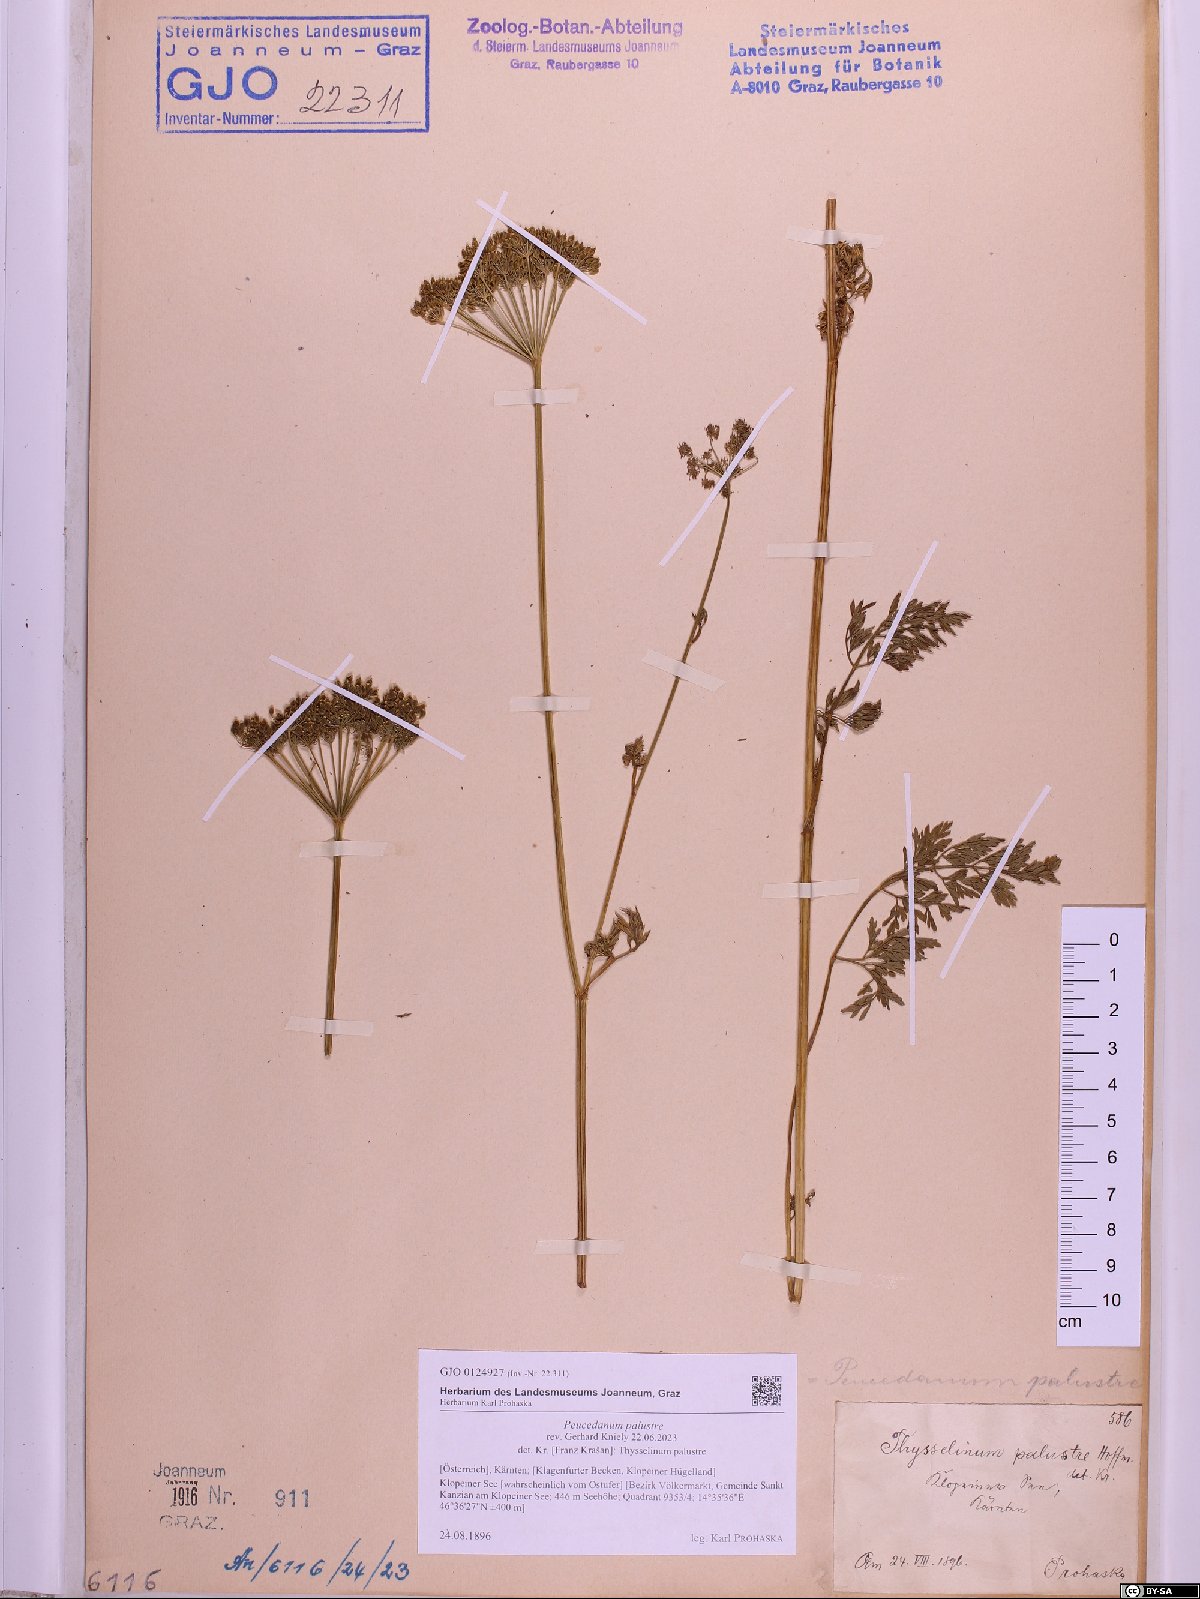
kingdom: Plantae
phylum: Tracheophyta
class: Magnoliopsida
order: Apiales
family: Apiaceae
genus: Thysselinum
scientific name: Thysselinum palustre
